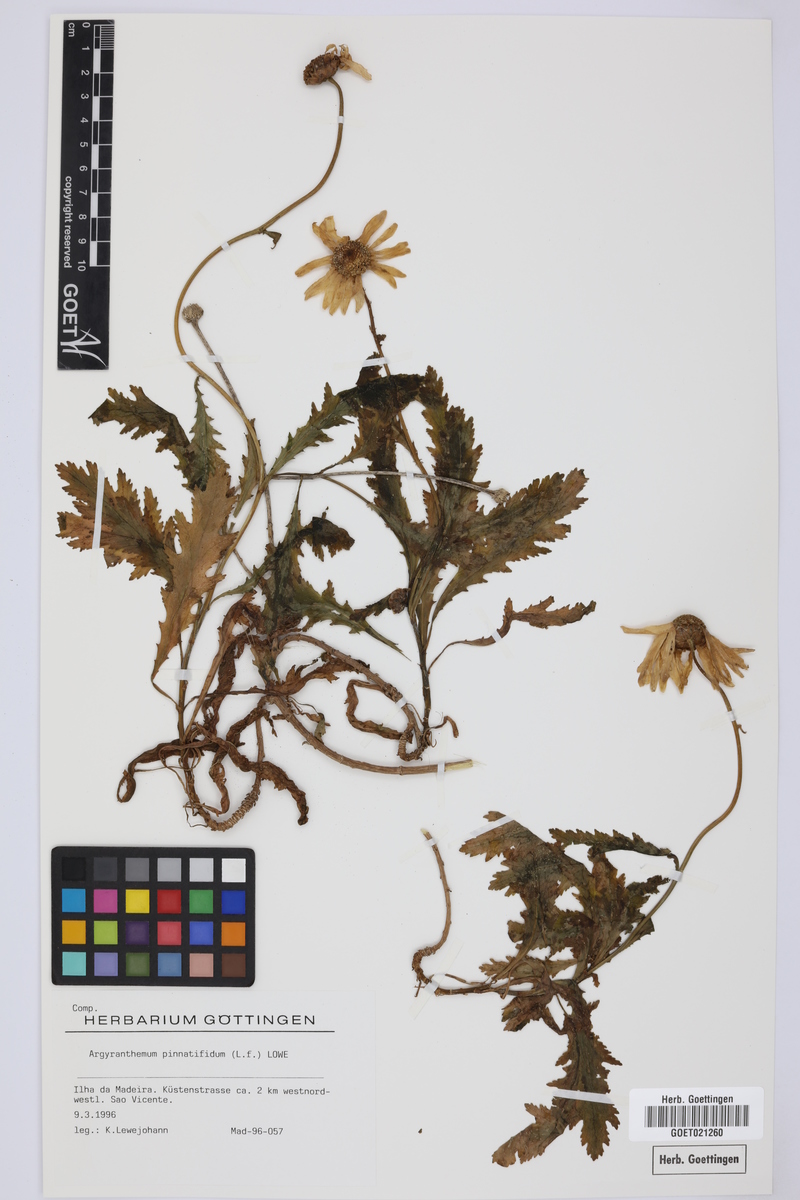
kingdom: Plantae
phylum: Tracheophyta
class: Magnoliopsida
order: Asterales
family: Asteraceae
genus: Argyranthemum
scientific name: Argyranthemum pinnatifidum
